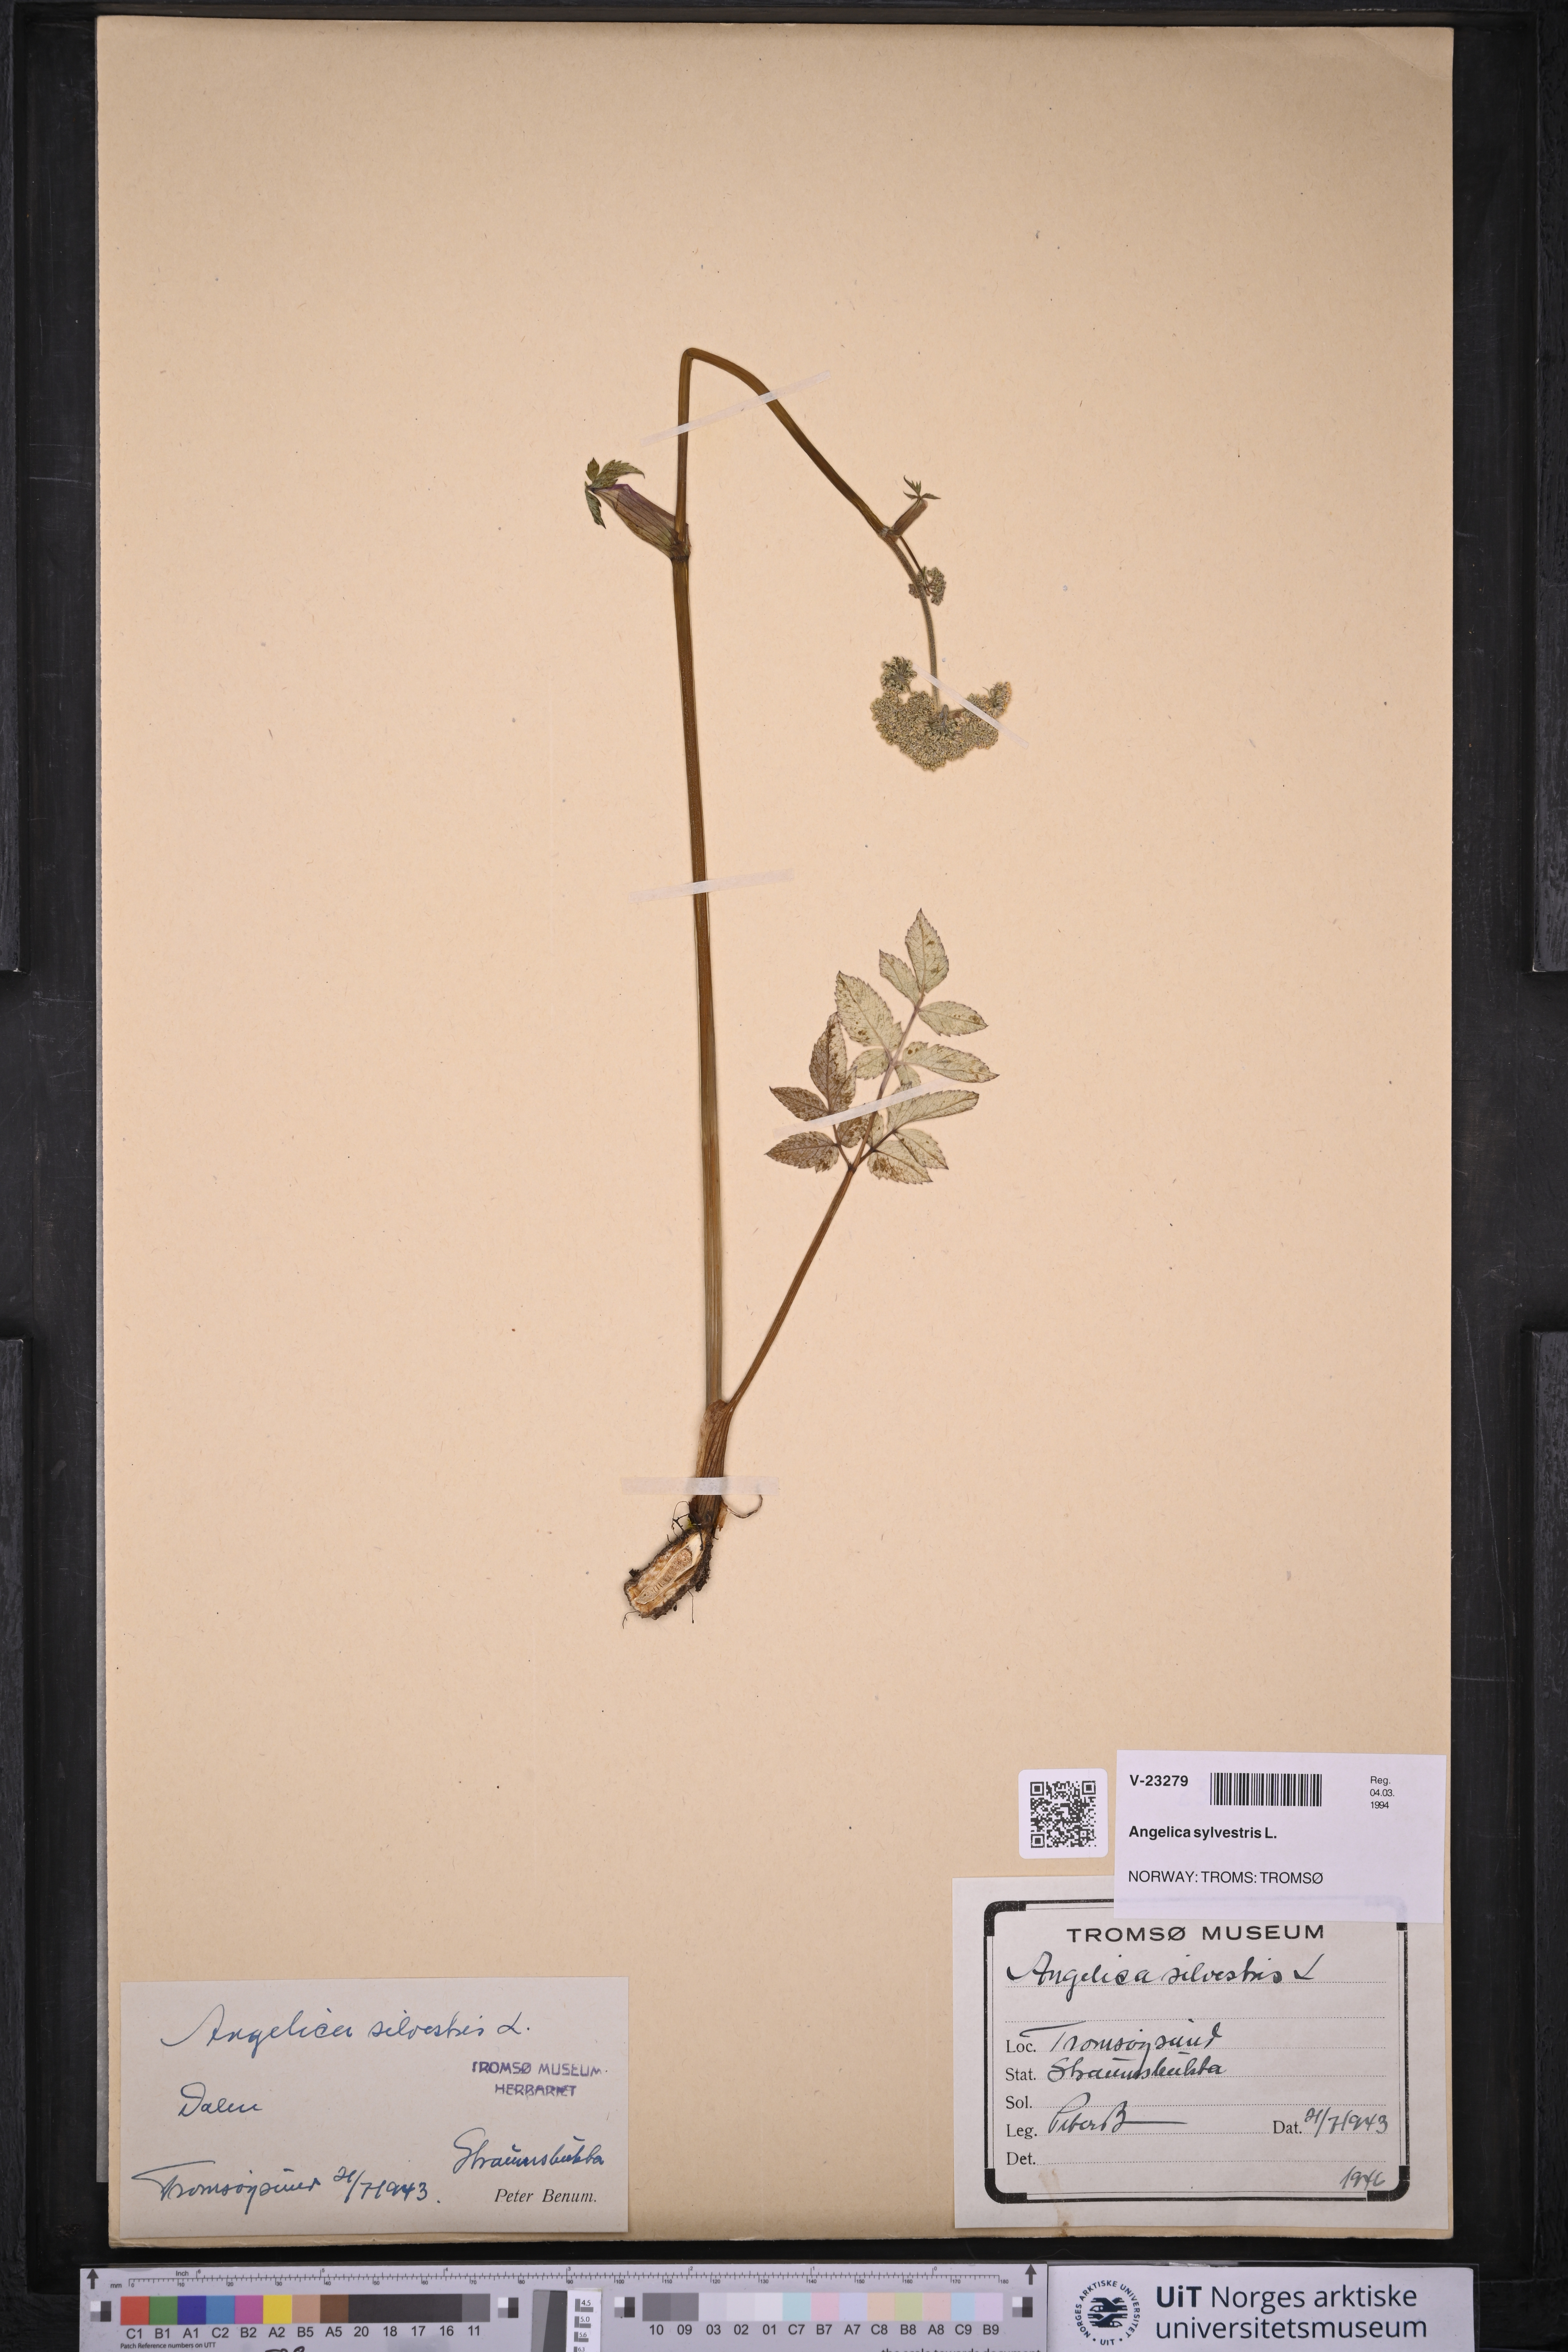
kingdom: Plantae
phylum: Tracheophyta
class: Magnoliopsida
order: Apiales
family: Apiaceae
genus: Angelica
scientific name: Angelica sylvestris
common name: Wild angelica
